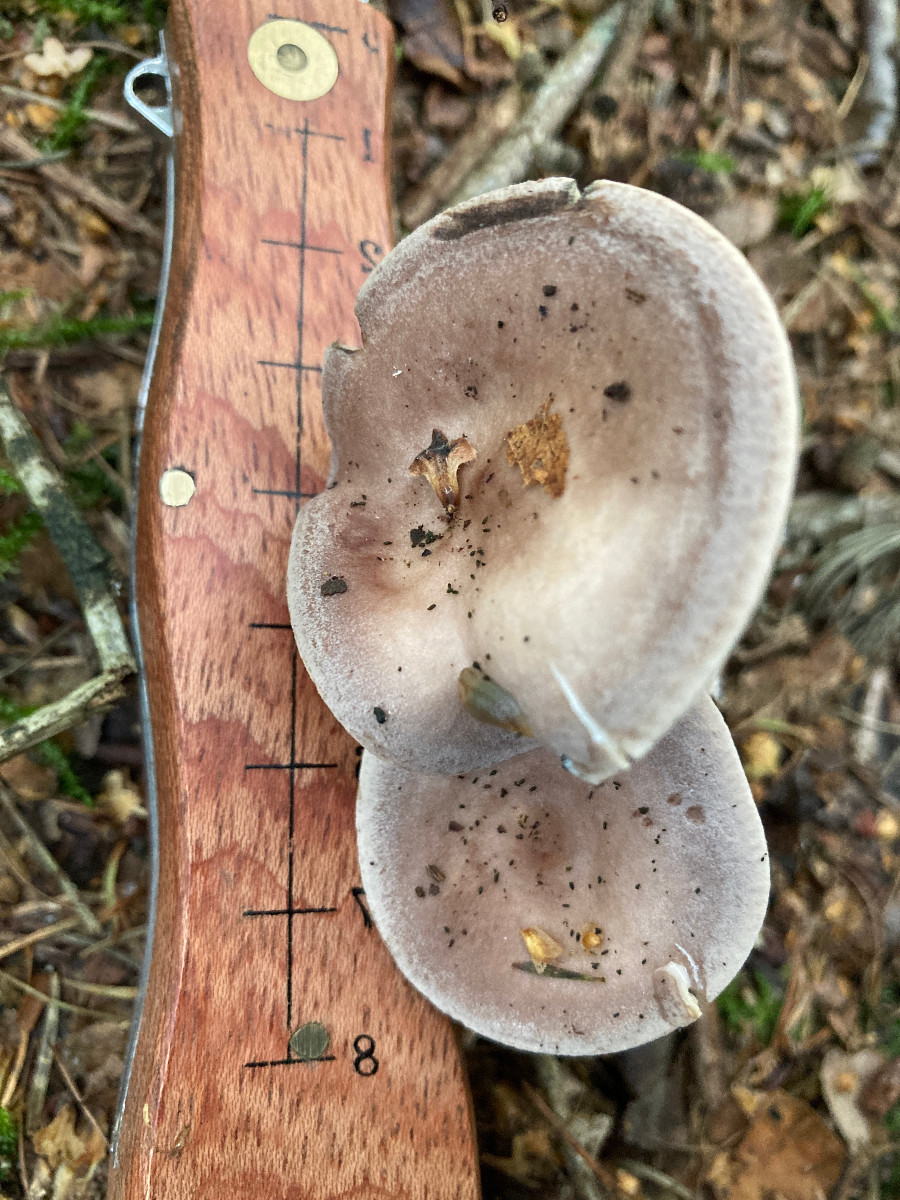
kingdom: Fungi
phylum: Basidiomycota
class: Agaricomycetes
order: Russulales
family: Russulaceae
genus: Lactarius
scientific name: Lactarius vietus
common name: violetgrå mælkehat
